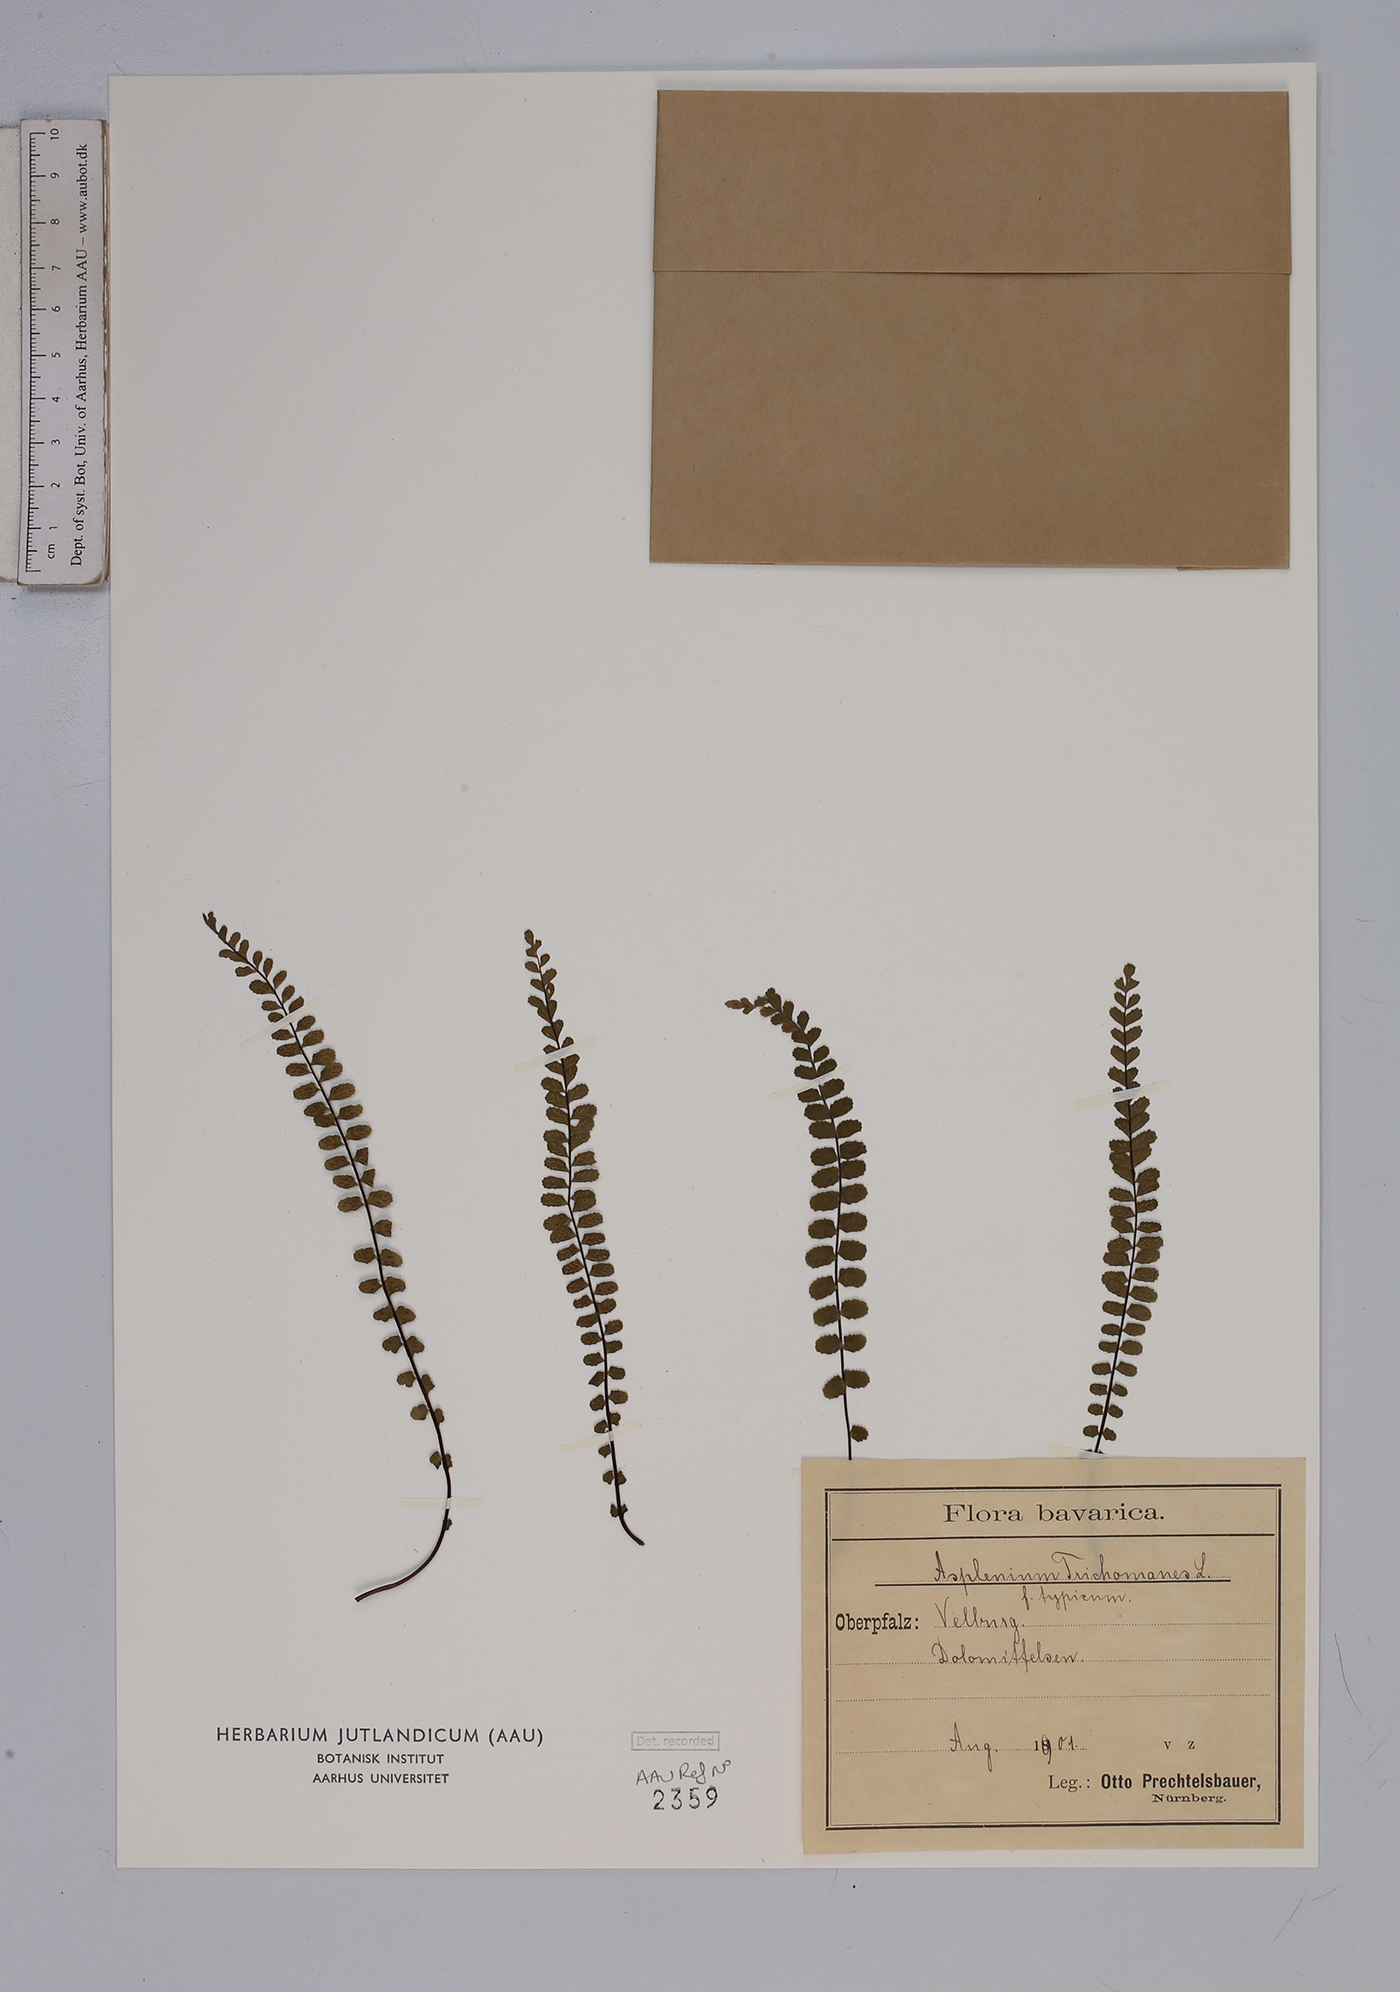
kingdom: Plantae
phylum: Tracheophyta
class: Polypodiopsida
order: Polypodiales
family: Aspleniaceae
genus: Asplenium
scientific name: Asplenium trichomanes
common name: Maidenhair spleenwort
